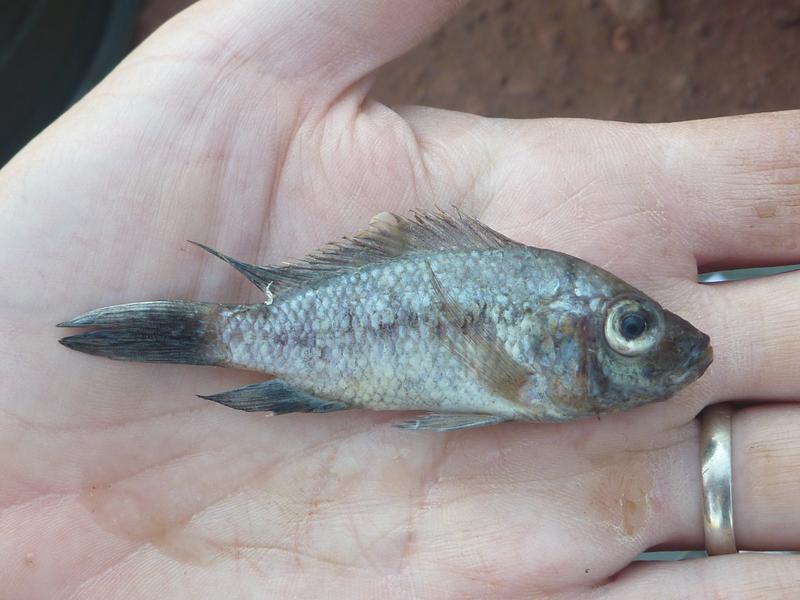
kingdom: Animalia
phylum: Chordata
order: Perciformes
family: Cichlidae
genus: Oreochromis
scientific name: Oreochromis korogwe
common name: Korogwe tilapia
